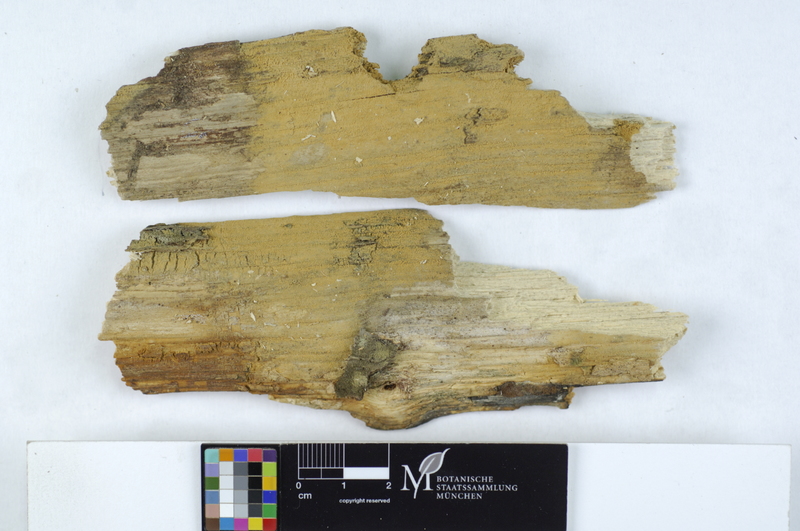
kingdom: Fungi
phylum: Basidiomycota
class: Agaricomycetes
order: Cantharellales
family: Botryobasidiaceae
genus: Botryobasidium
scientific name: Botryobasidium candicans
